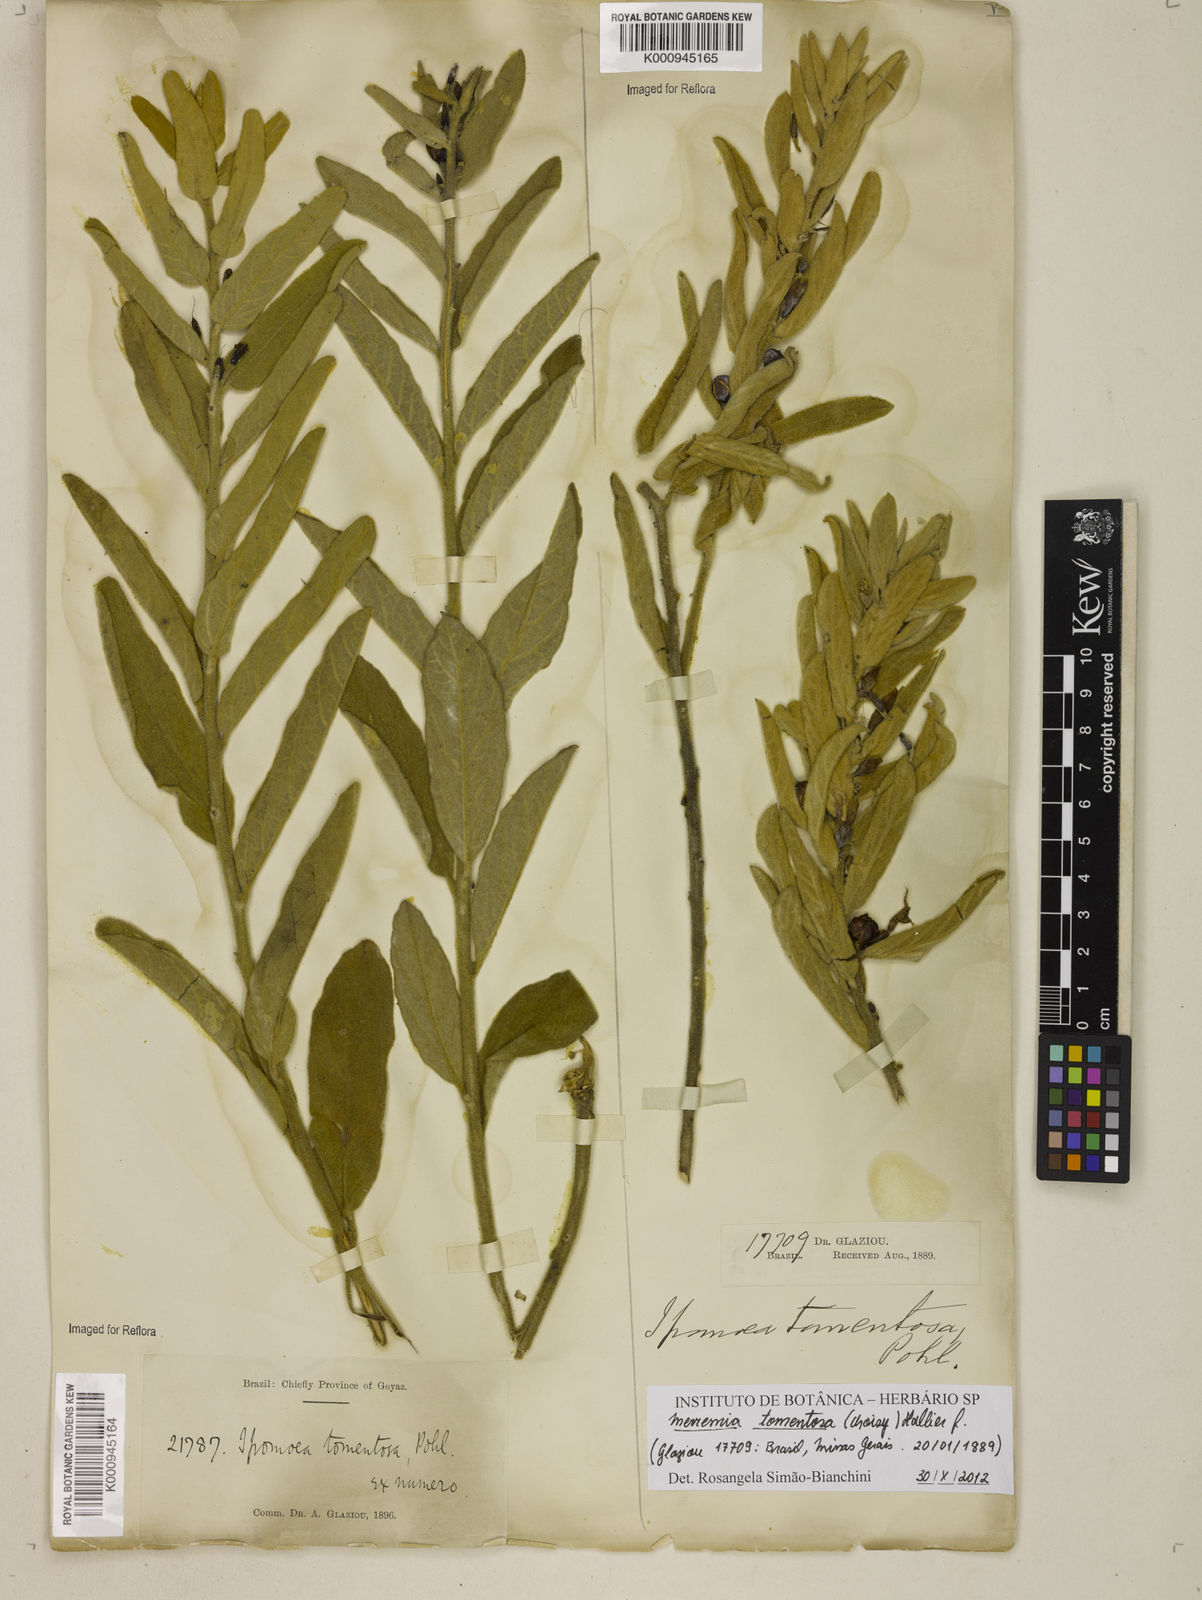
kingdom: Plantae
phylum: Tracheophyta
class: Magnoliopsida
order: Solanales
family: Convolvulaceae
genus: Distimake
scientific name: Distimake tomentosus
